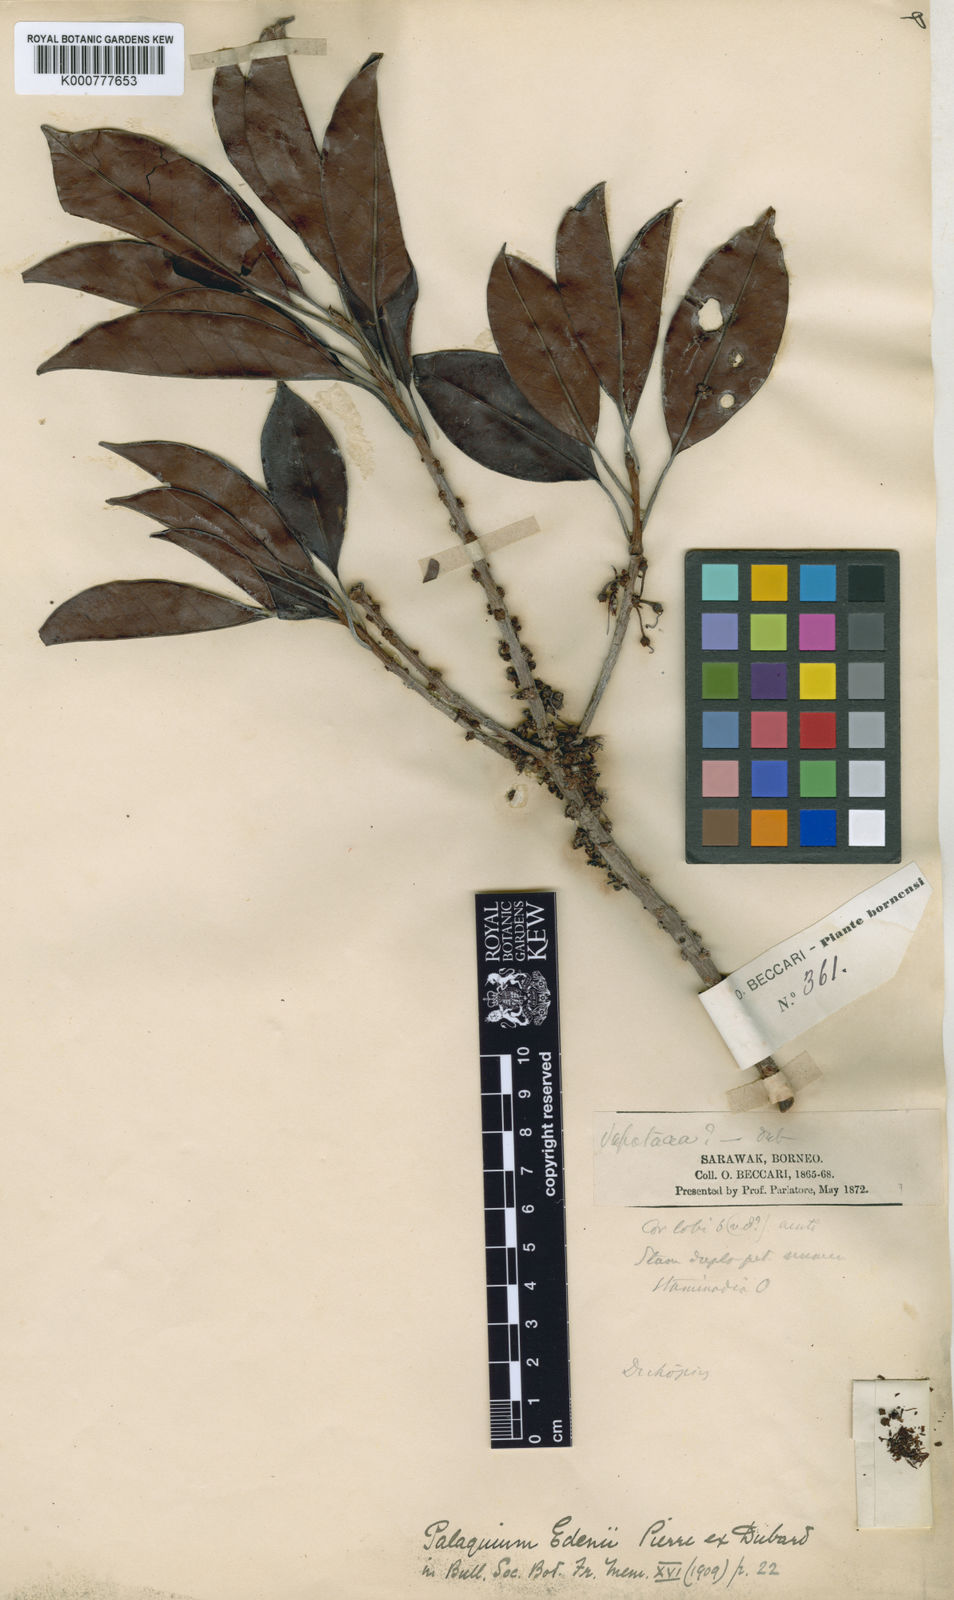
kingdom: Plantae
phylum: Tracheophyta
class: Magnoliopsida
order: Ericales
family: Sapotaceae
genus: Palaquium
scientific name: Palaquium edenii
